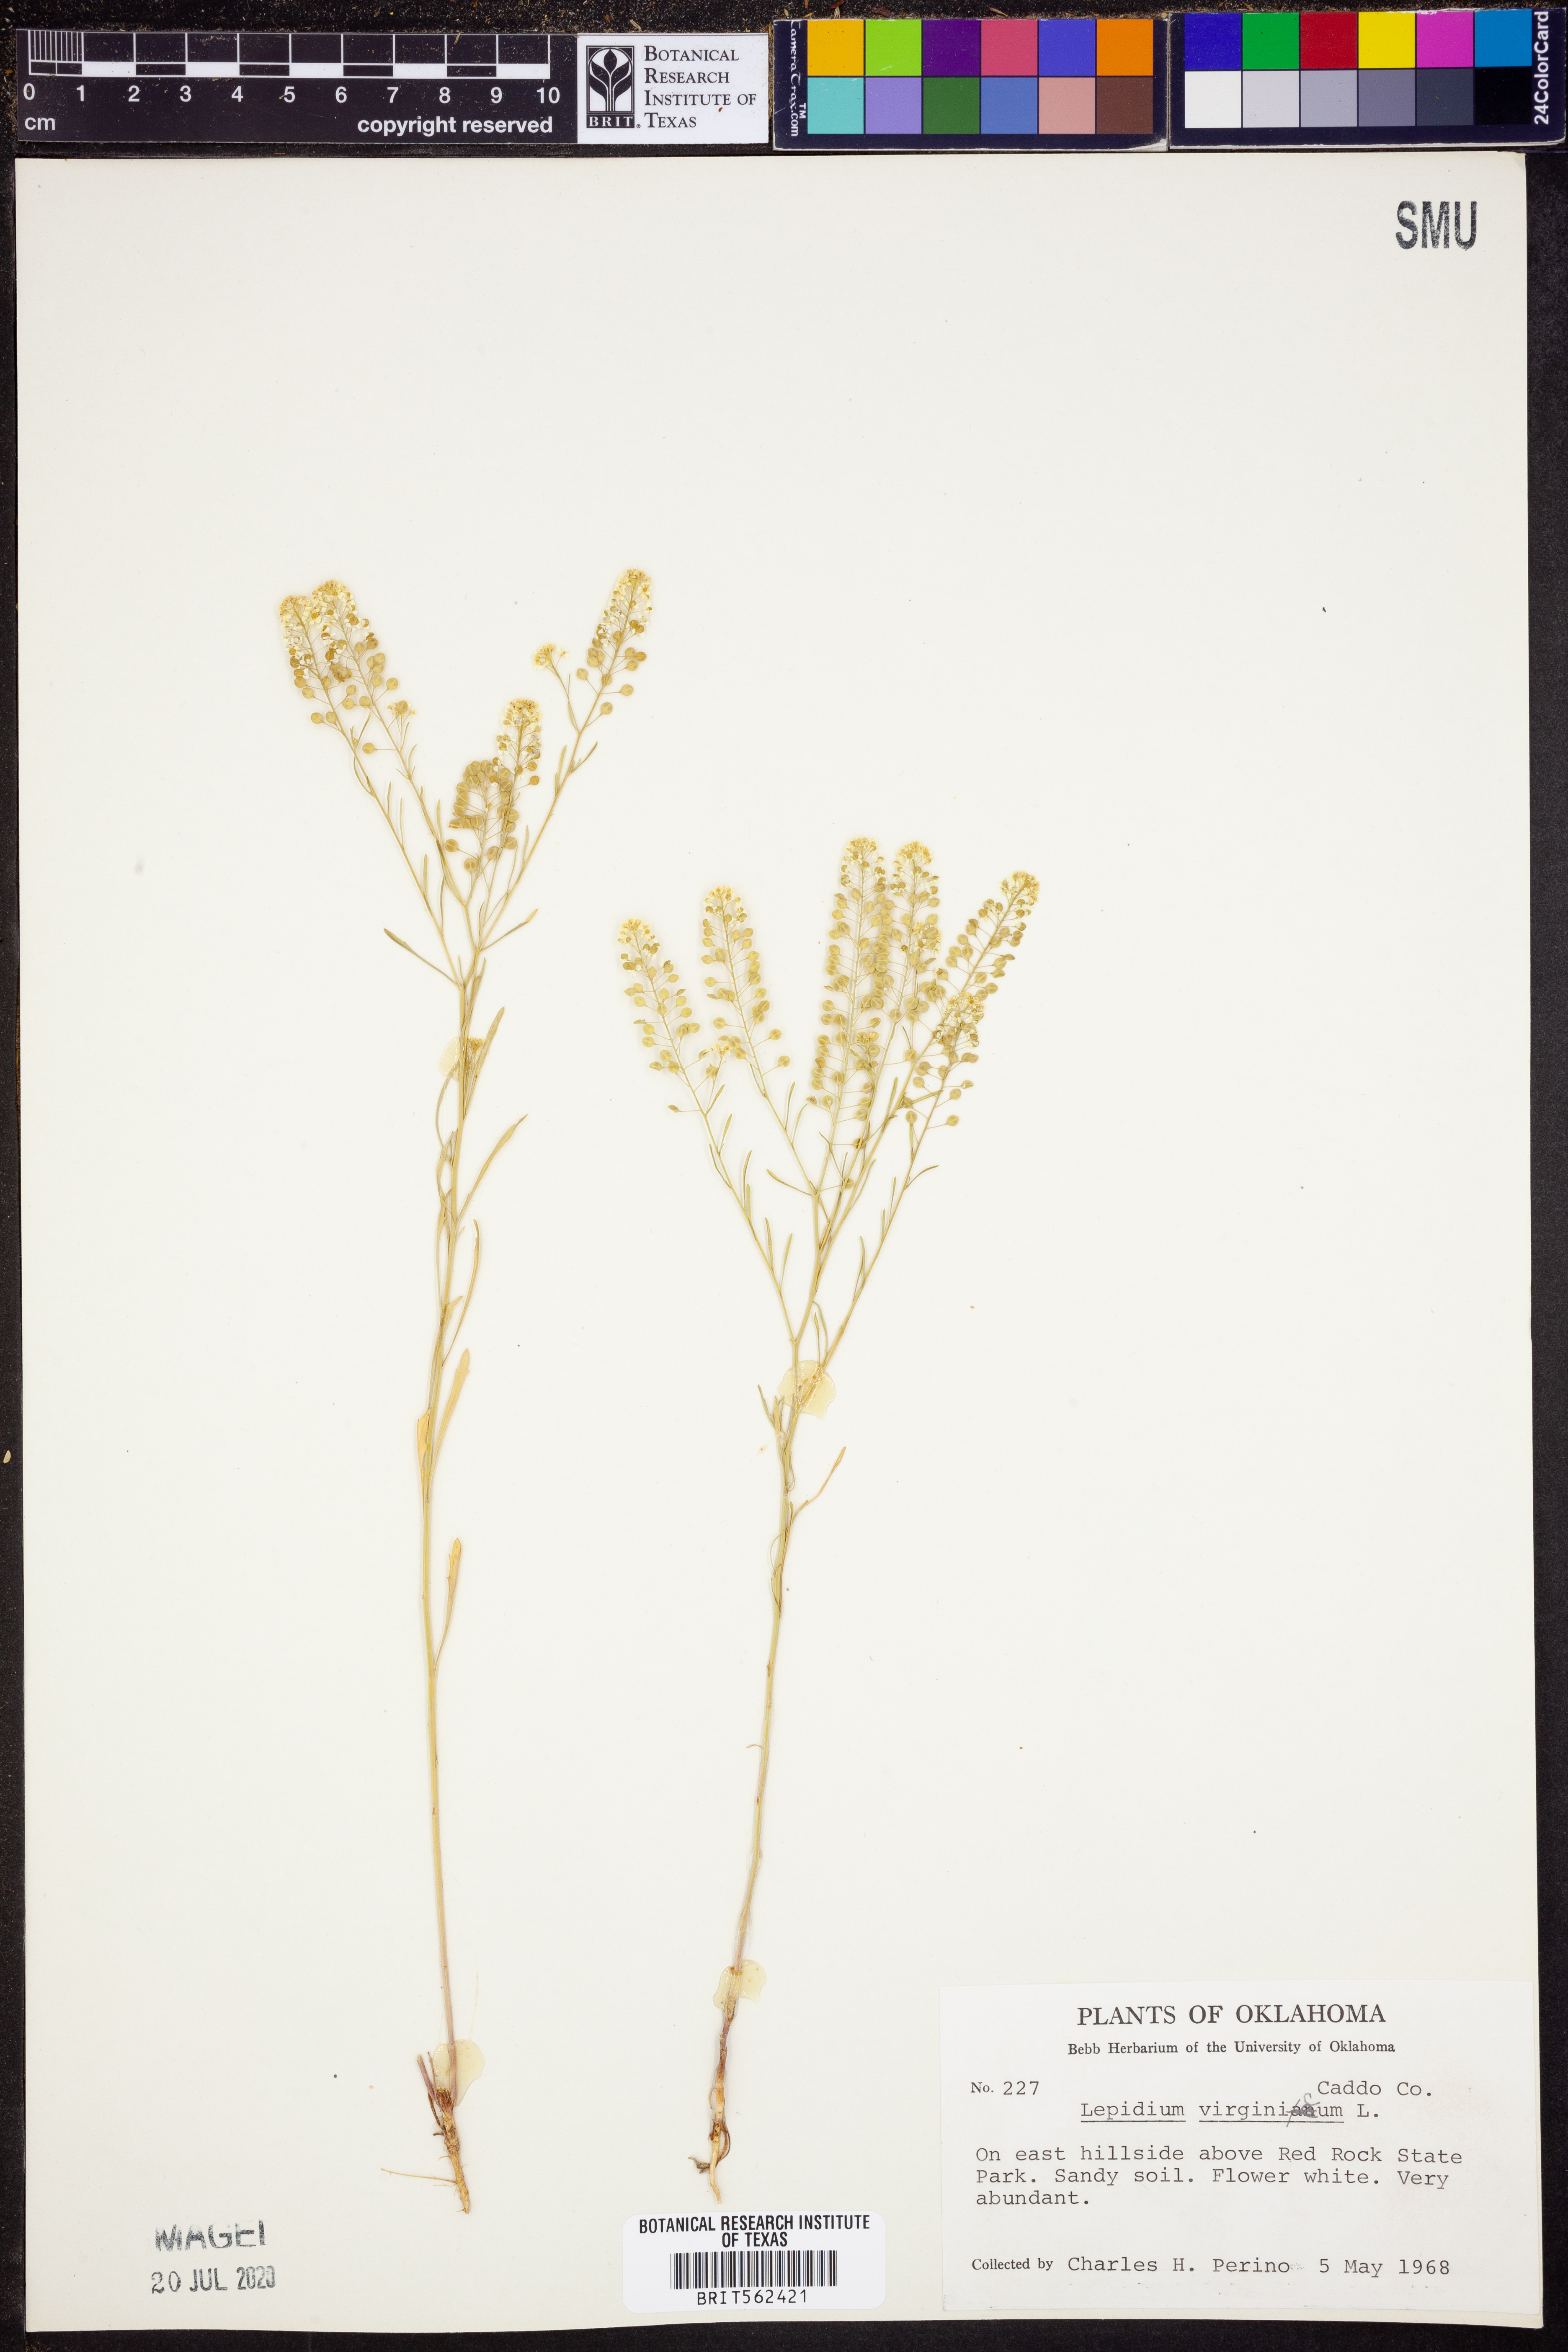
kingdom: Plantae
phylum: Tracheophyta
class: Magnoliopsida
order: Brassicales
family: Brassicaceae
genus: Lepidium
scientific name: Lepidium virginicum
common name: Least pepperwort
